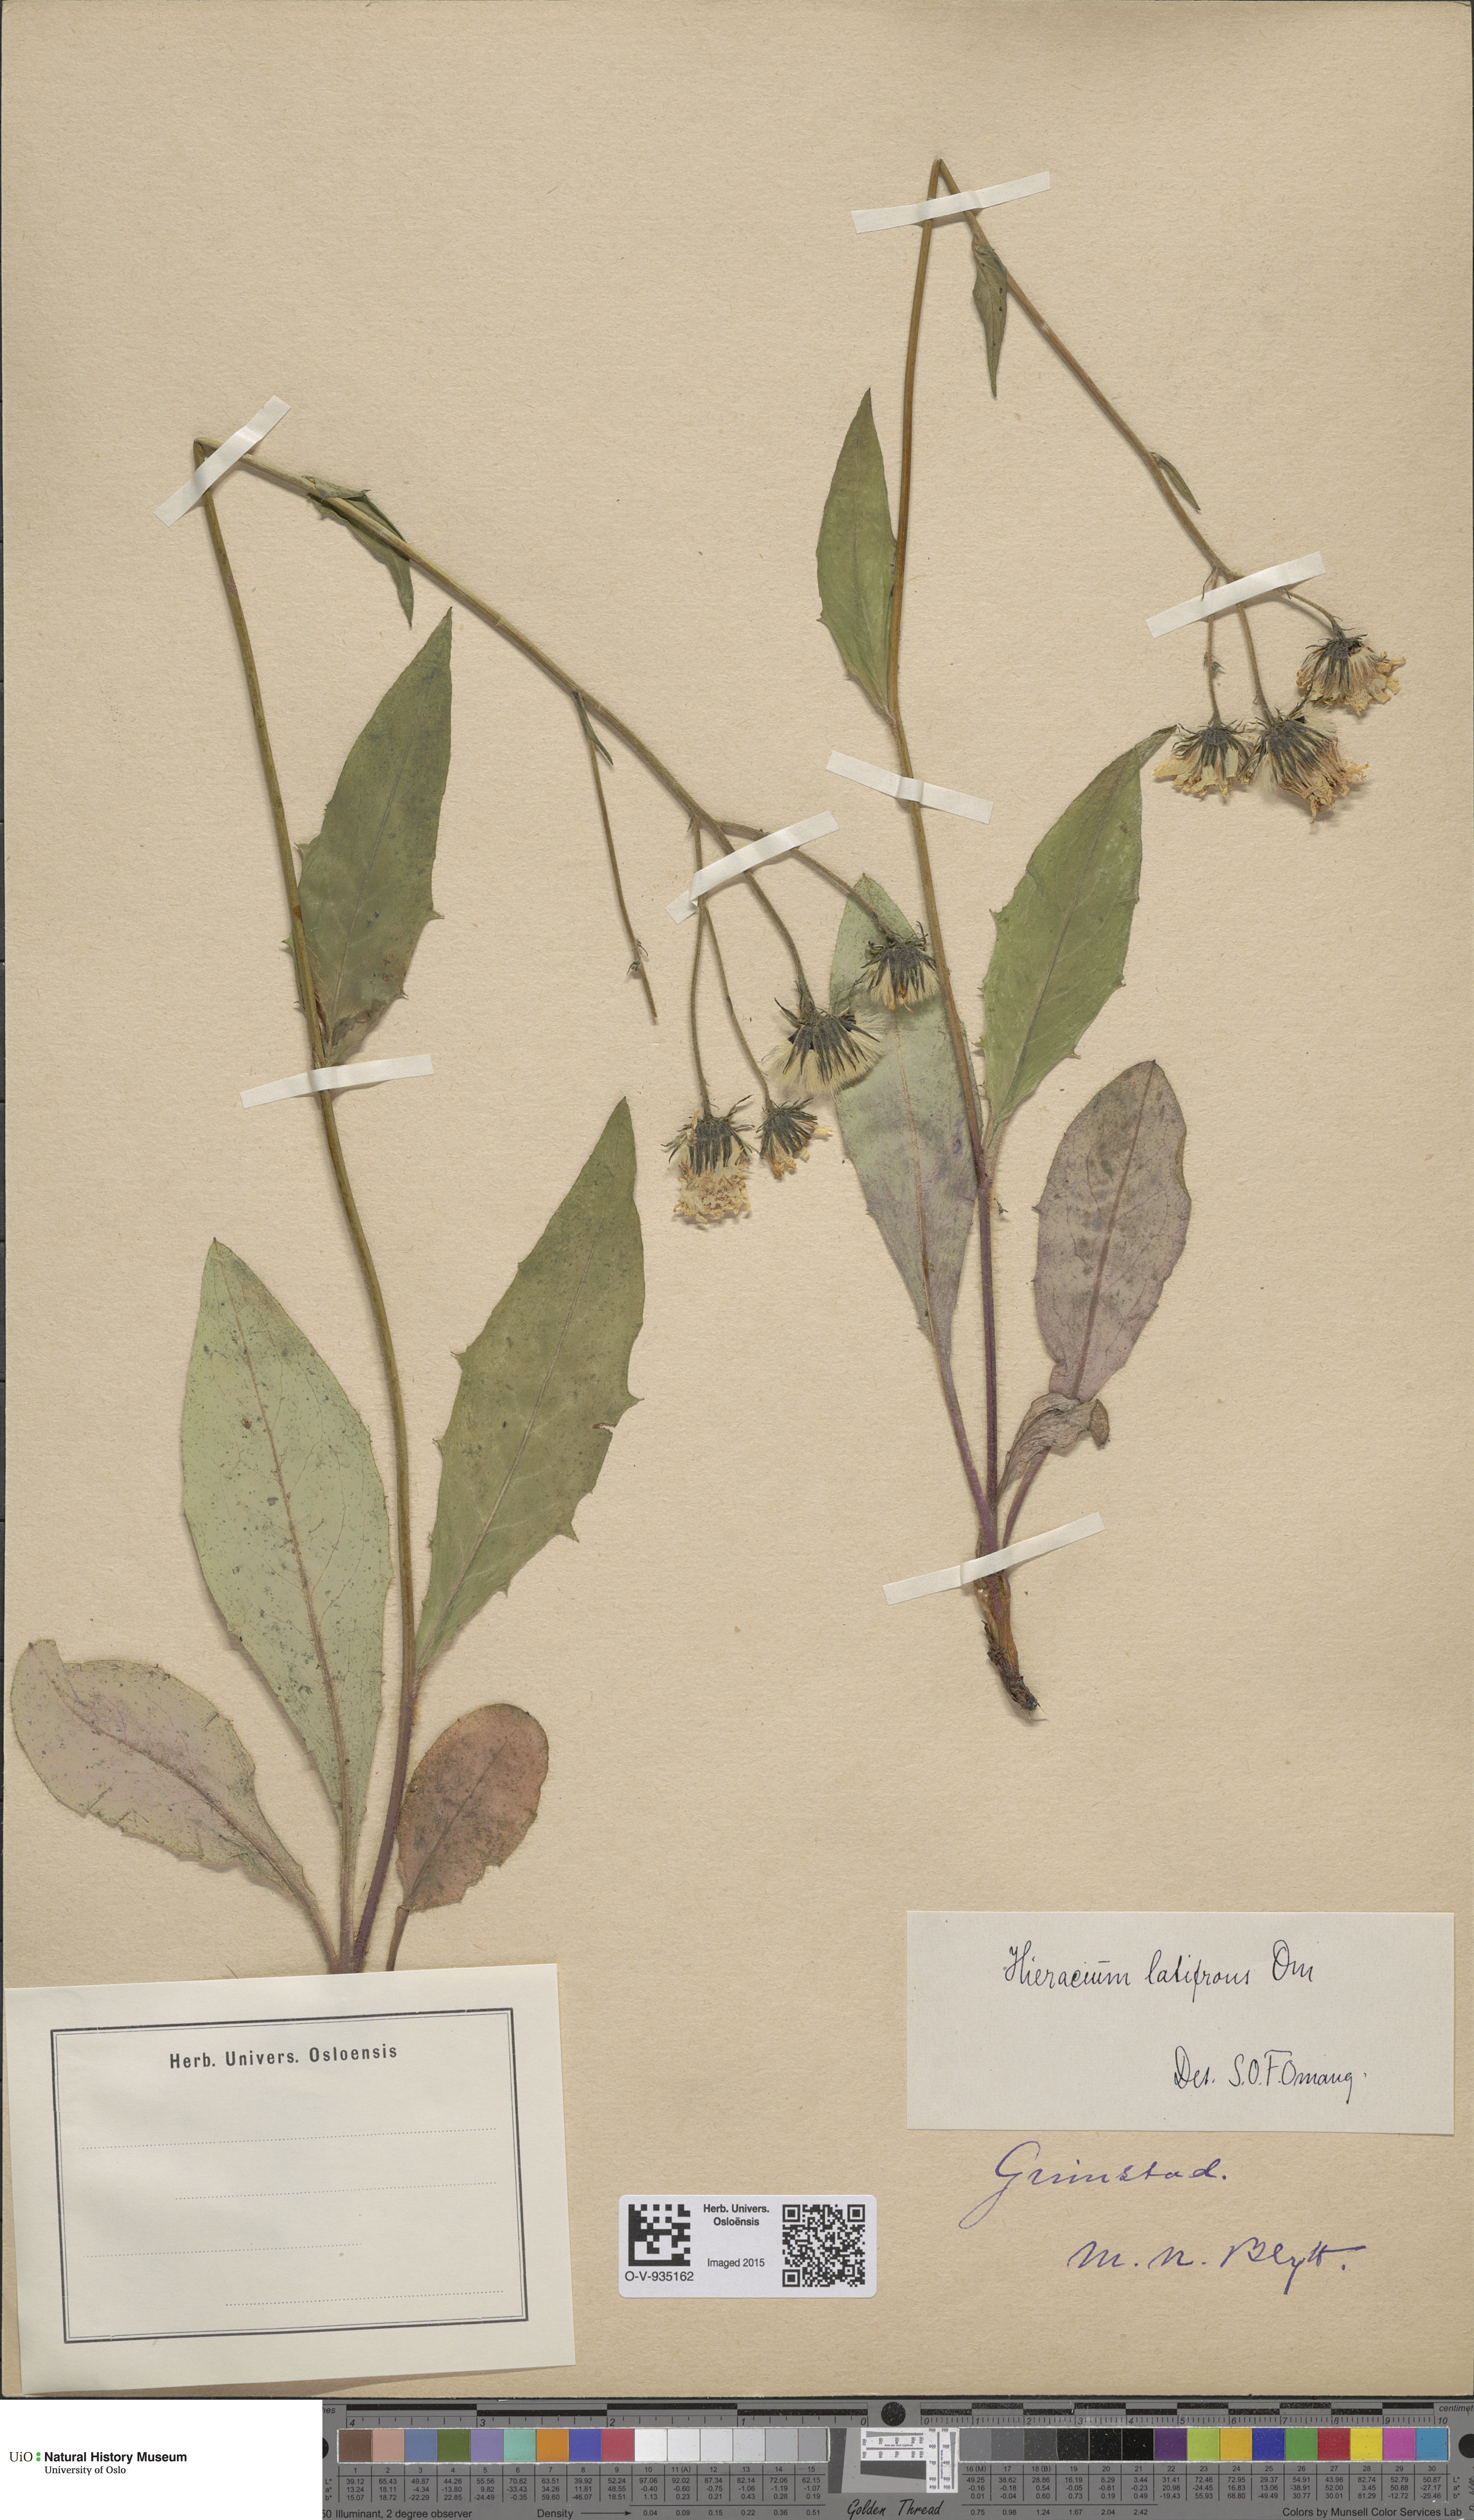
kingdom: Plantae
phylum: Tracheophyta
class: Magnoliopsida
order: Asterales
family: Asteraceae
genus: Hieracium
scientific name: Hieracium saxifragum
